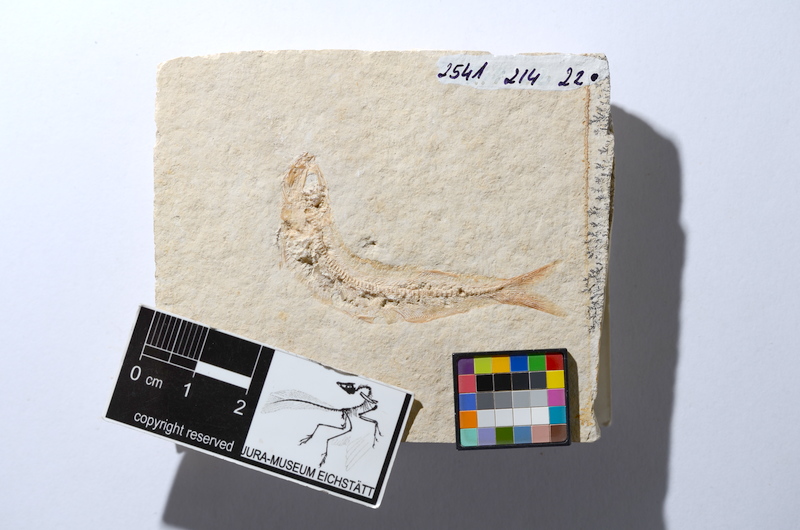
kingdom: Animalia
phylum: Chordata
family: Allothrissopidae
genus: Allothrissops
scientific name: Allothrissops
